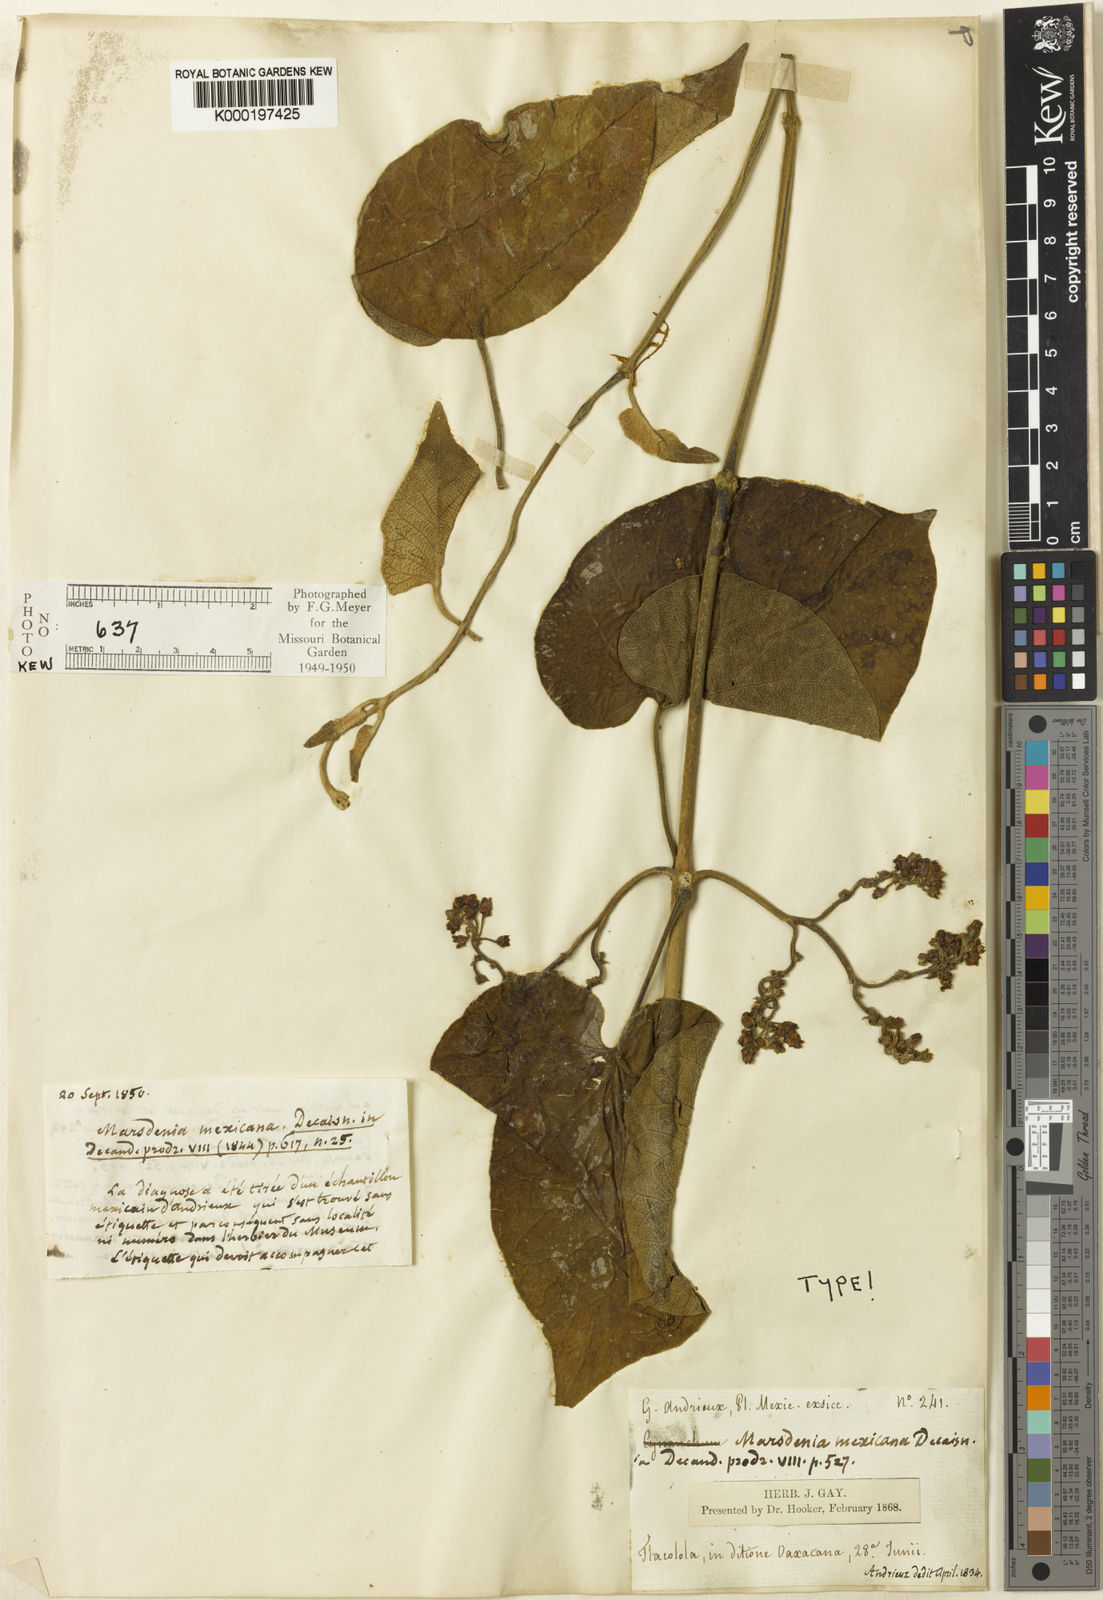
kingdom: Plantae
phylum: Tracheophyta
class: Magnoliopsida
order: Gentianales
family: Apocynaceae
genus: Ruehssia
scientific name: Ruehssia mexicana
